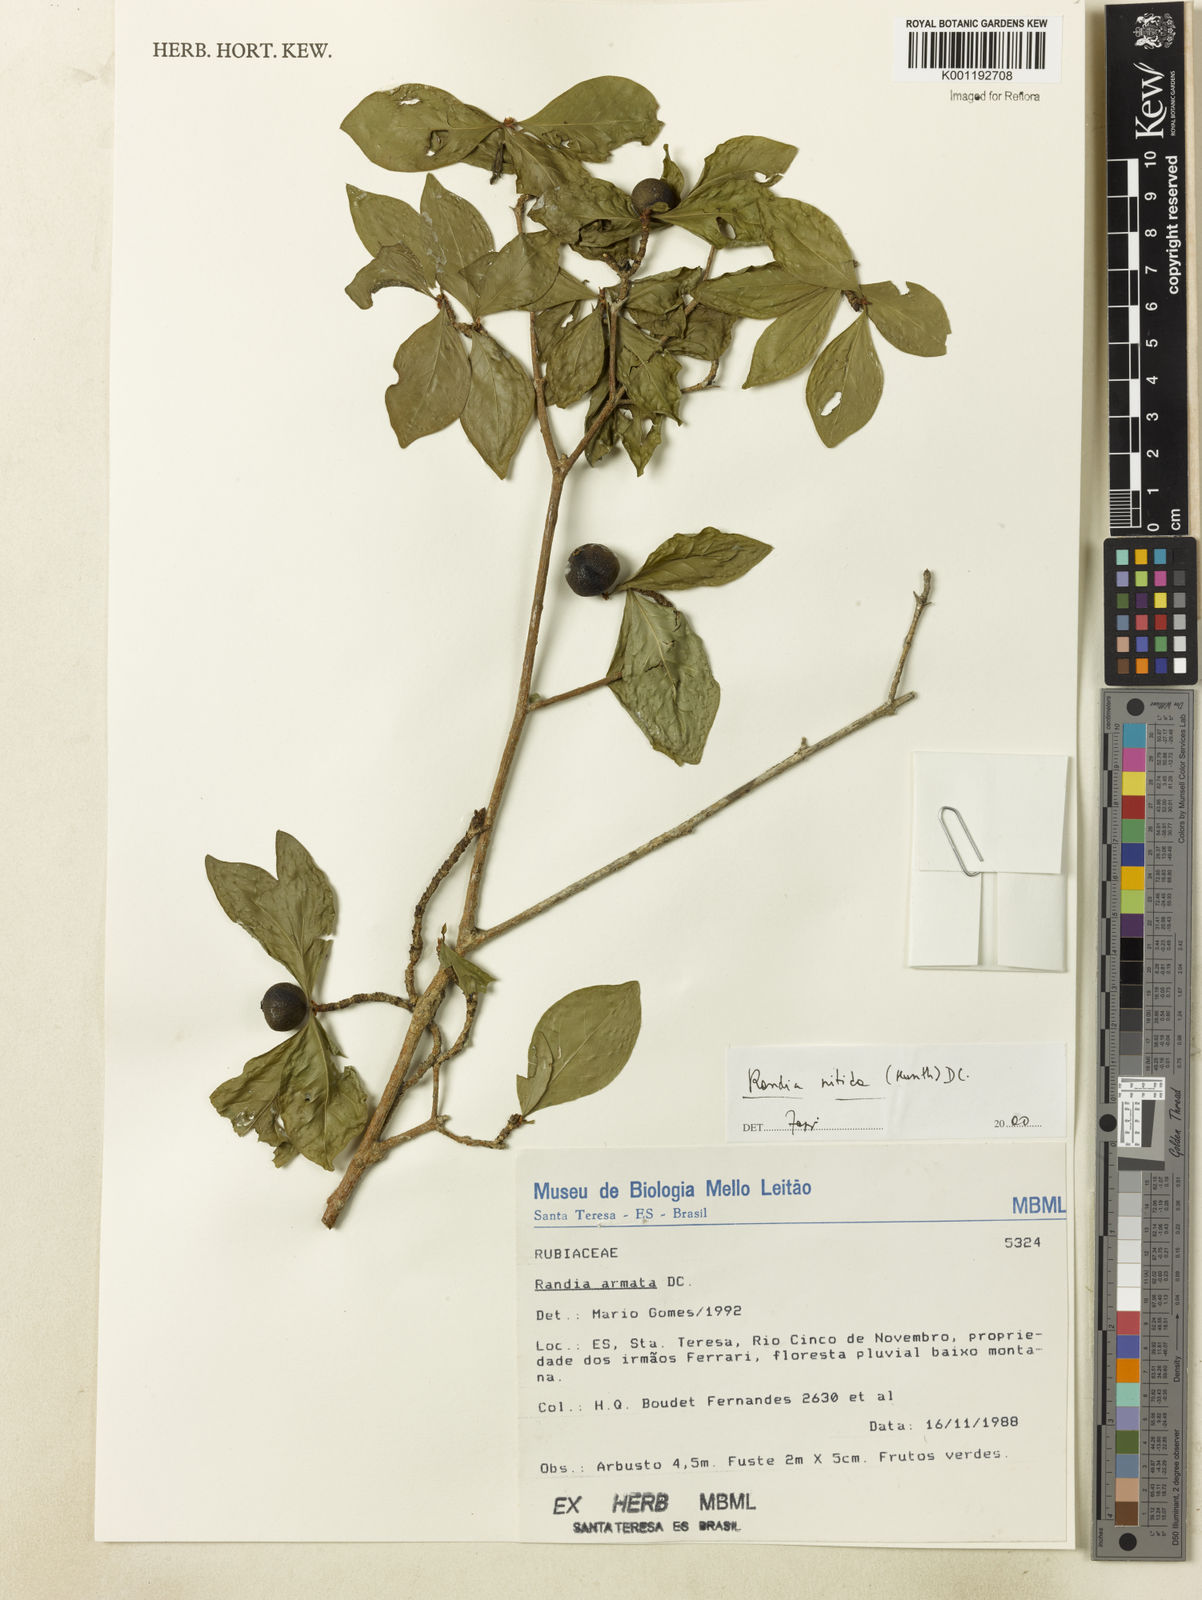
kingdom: Plantae
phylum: Tracheophyta
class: Magnoliopsida
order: Gentianales
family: Rubiaceae
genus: Randia
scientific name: Randia nitida
